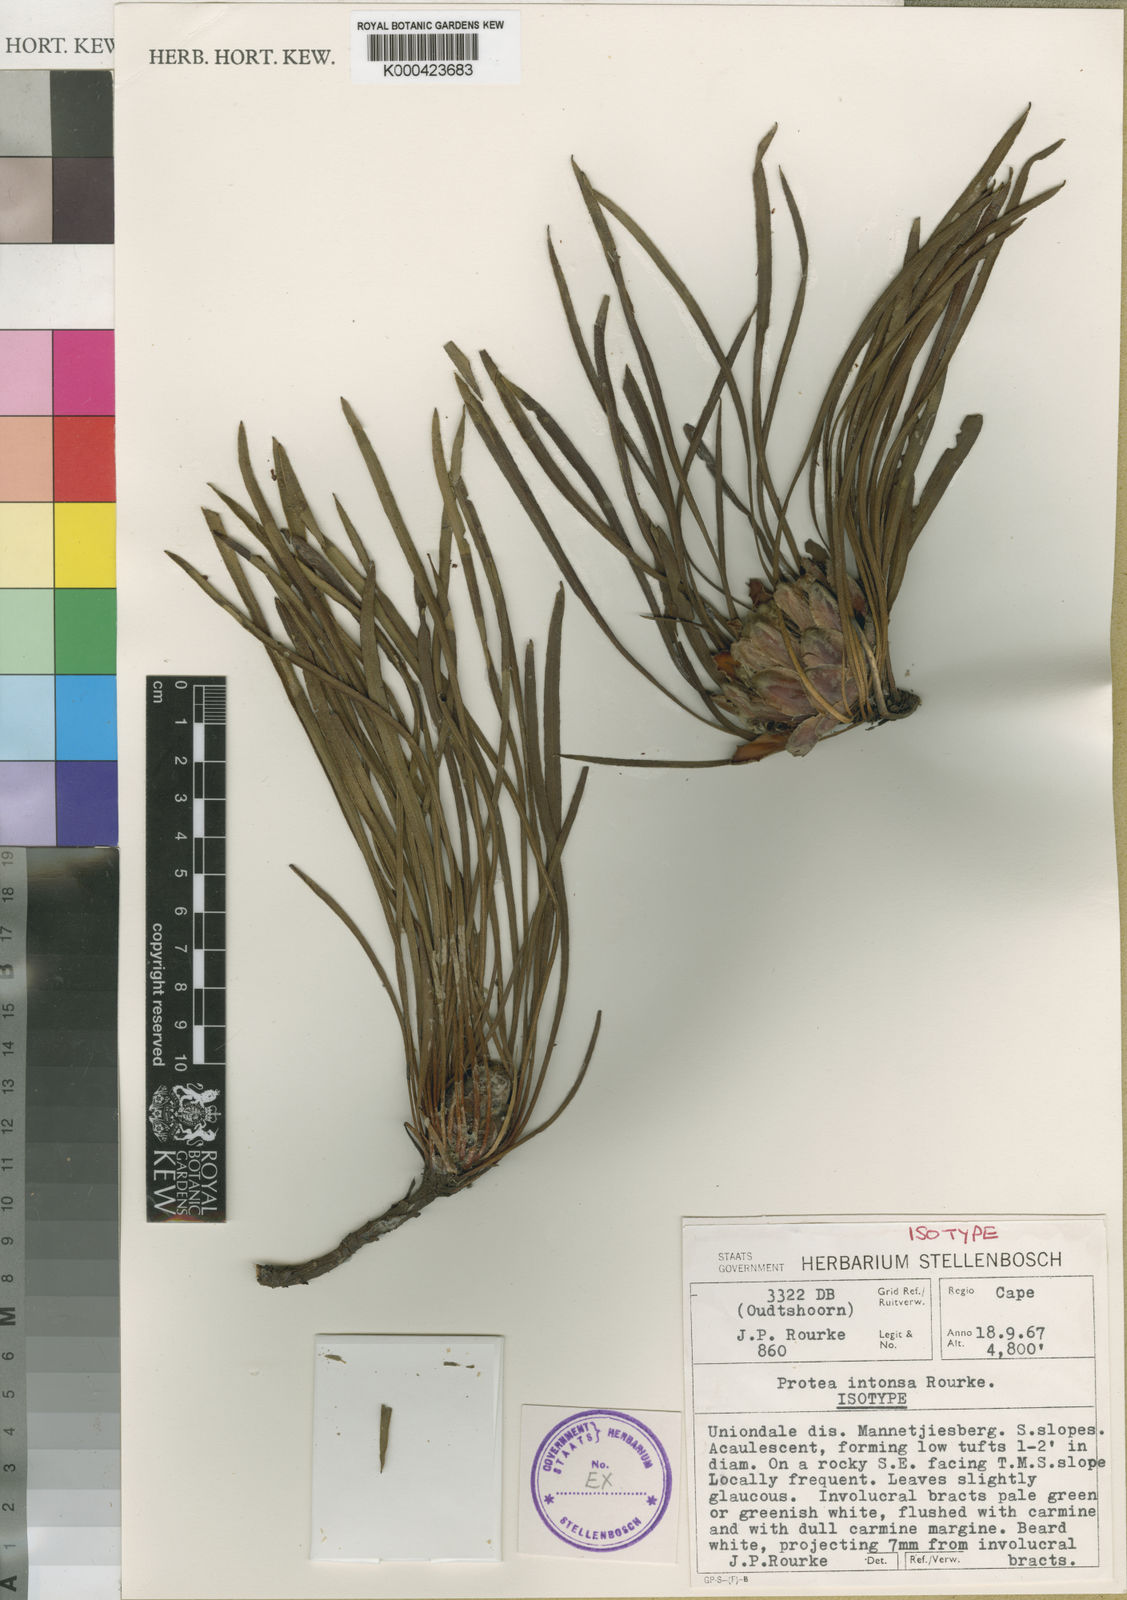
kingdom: Plantae
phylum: Tracheophyta
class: Magnoliopsida
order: Proteales
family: Proteaceae
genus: Protea
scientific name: Protea intonsa
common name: Tufted sugarbush
